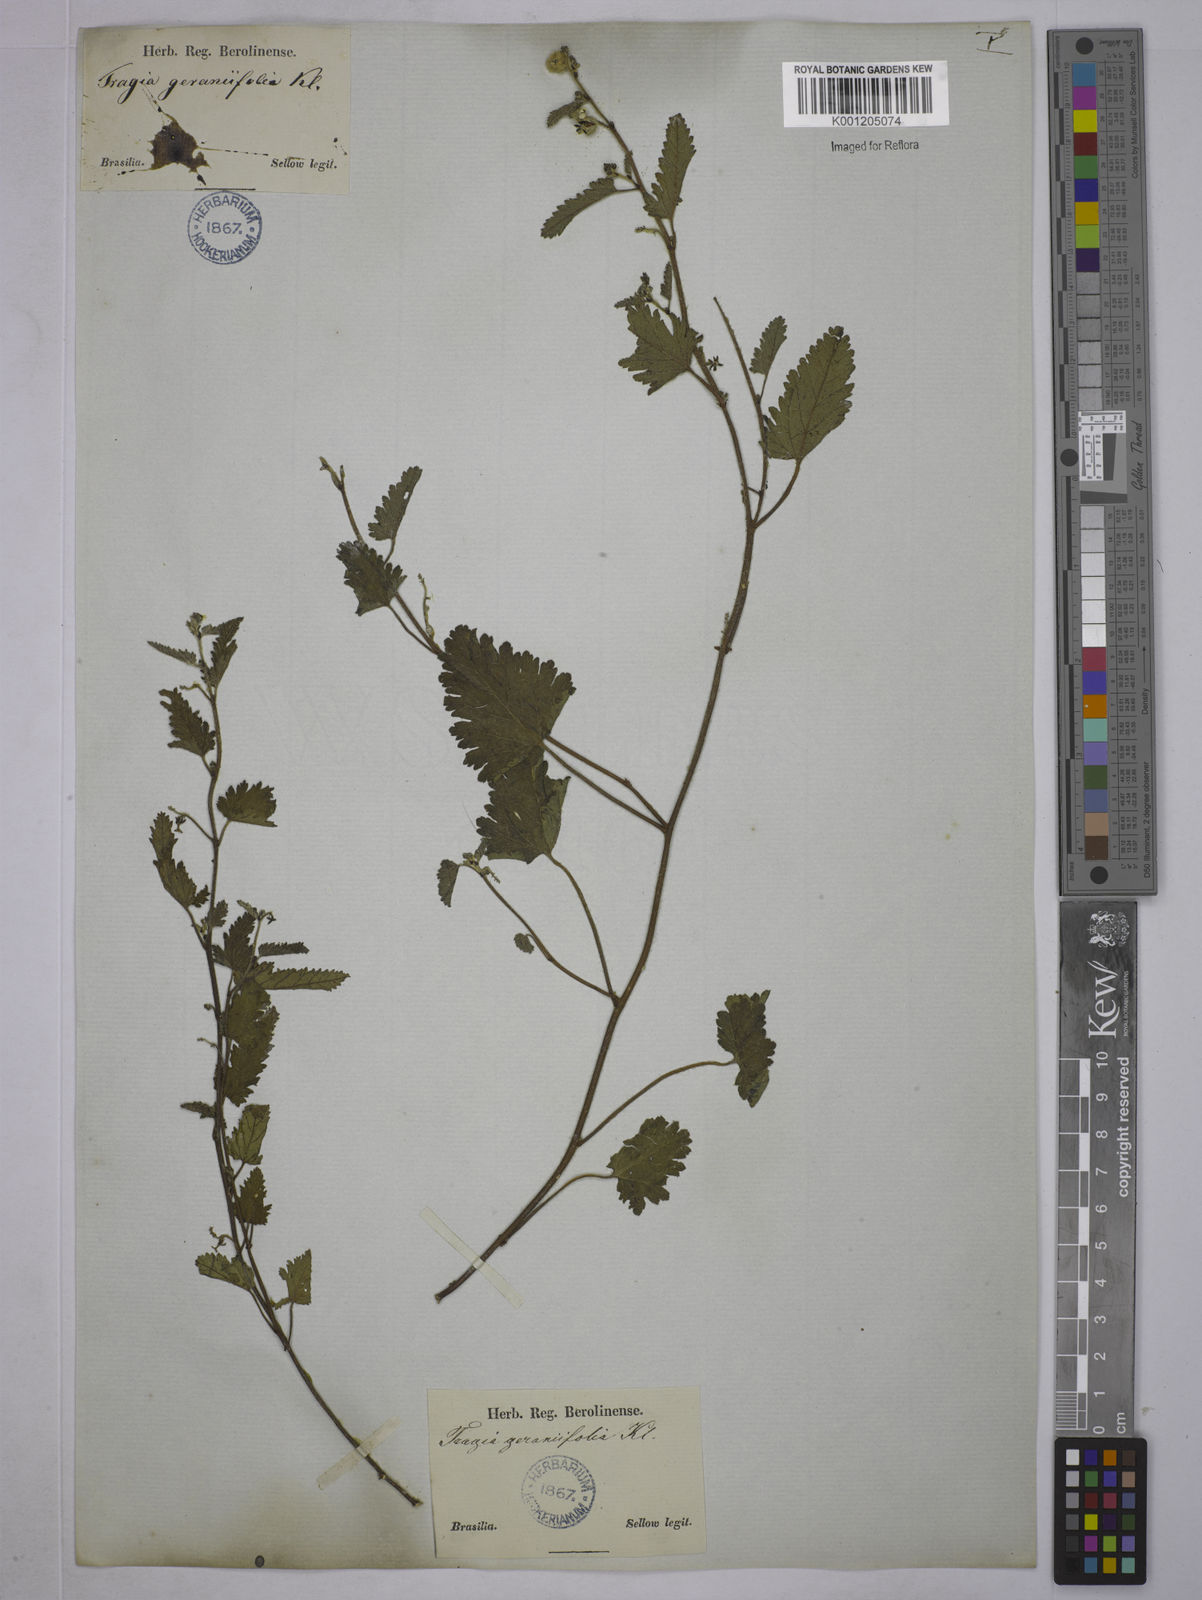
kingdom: Plantae
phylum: Tracheophyta
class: Magnoliopsida
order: Malpighiales
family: Euphorbiaceae
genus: Tragia
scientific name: Tragia
